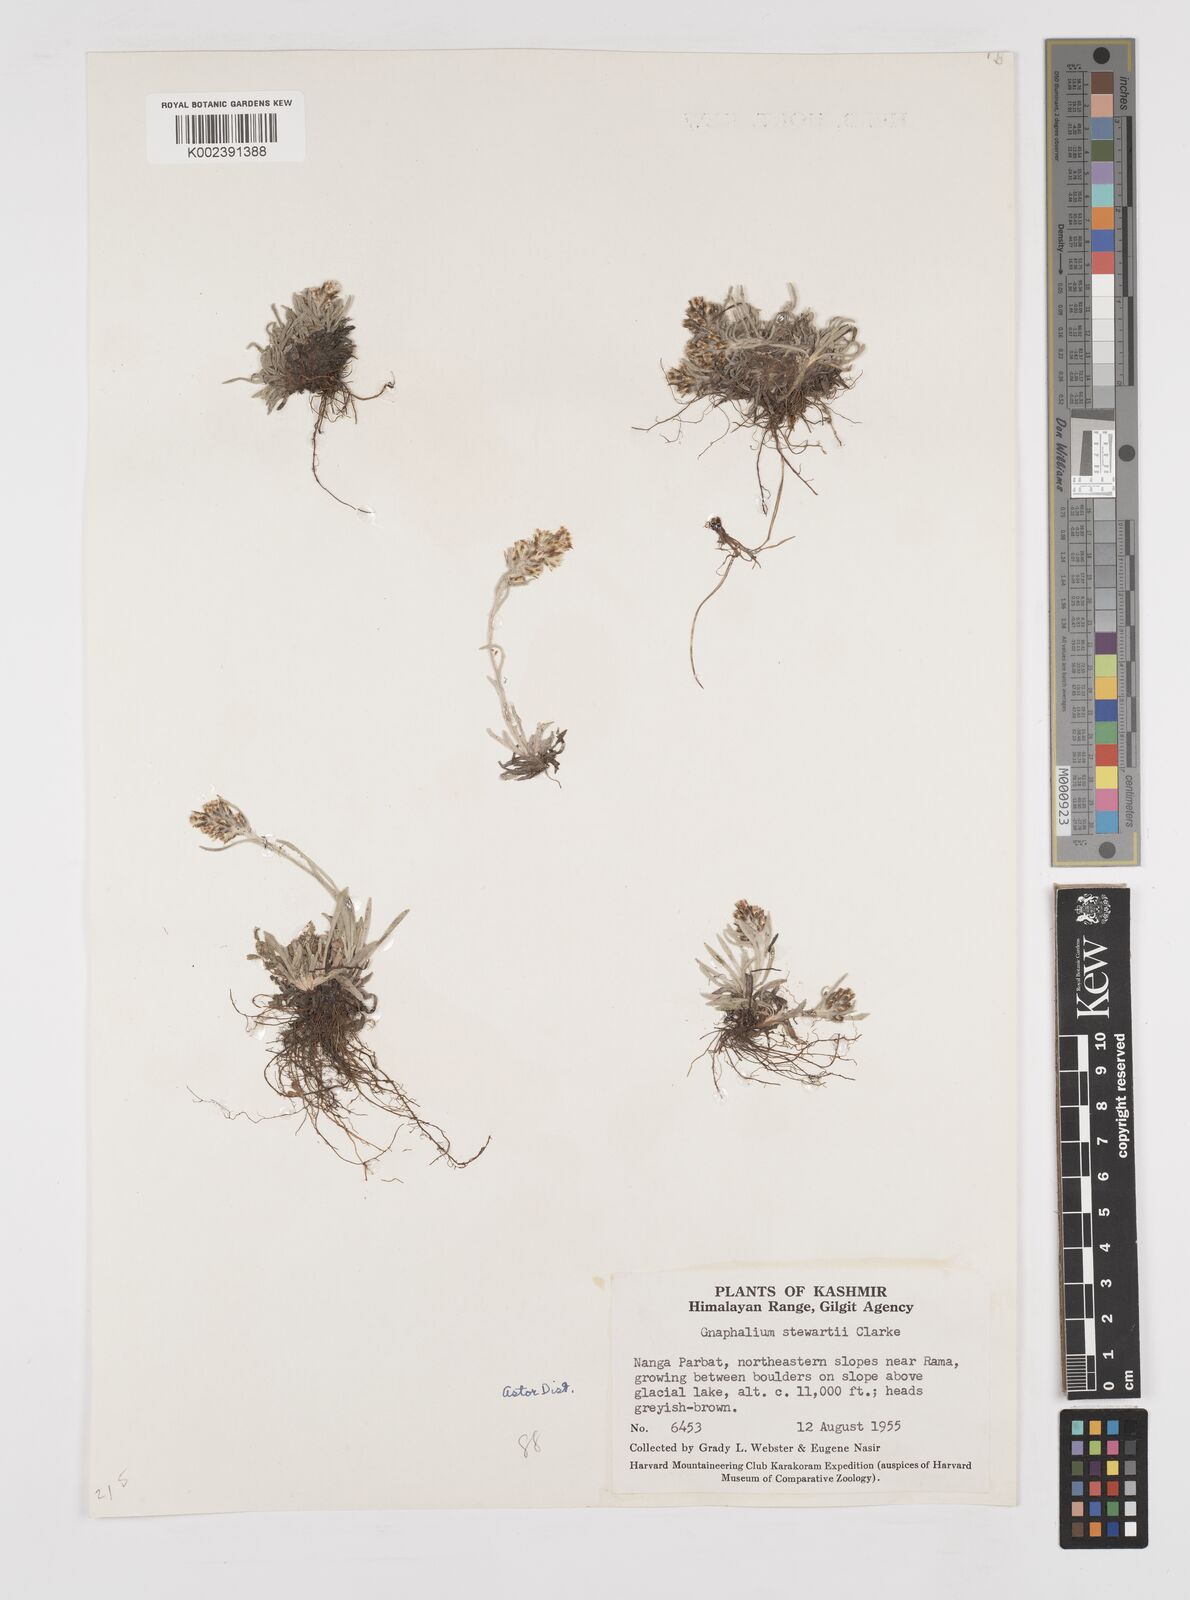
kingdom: Plantae
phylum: Tracheophyta
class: Magnoliopsida
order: Asterales
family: Asteraceae
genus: Gnaphalium
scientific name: Gnaphalium stewartii
